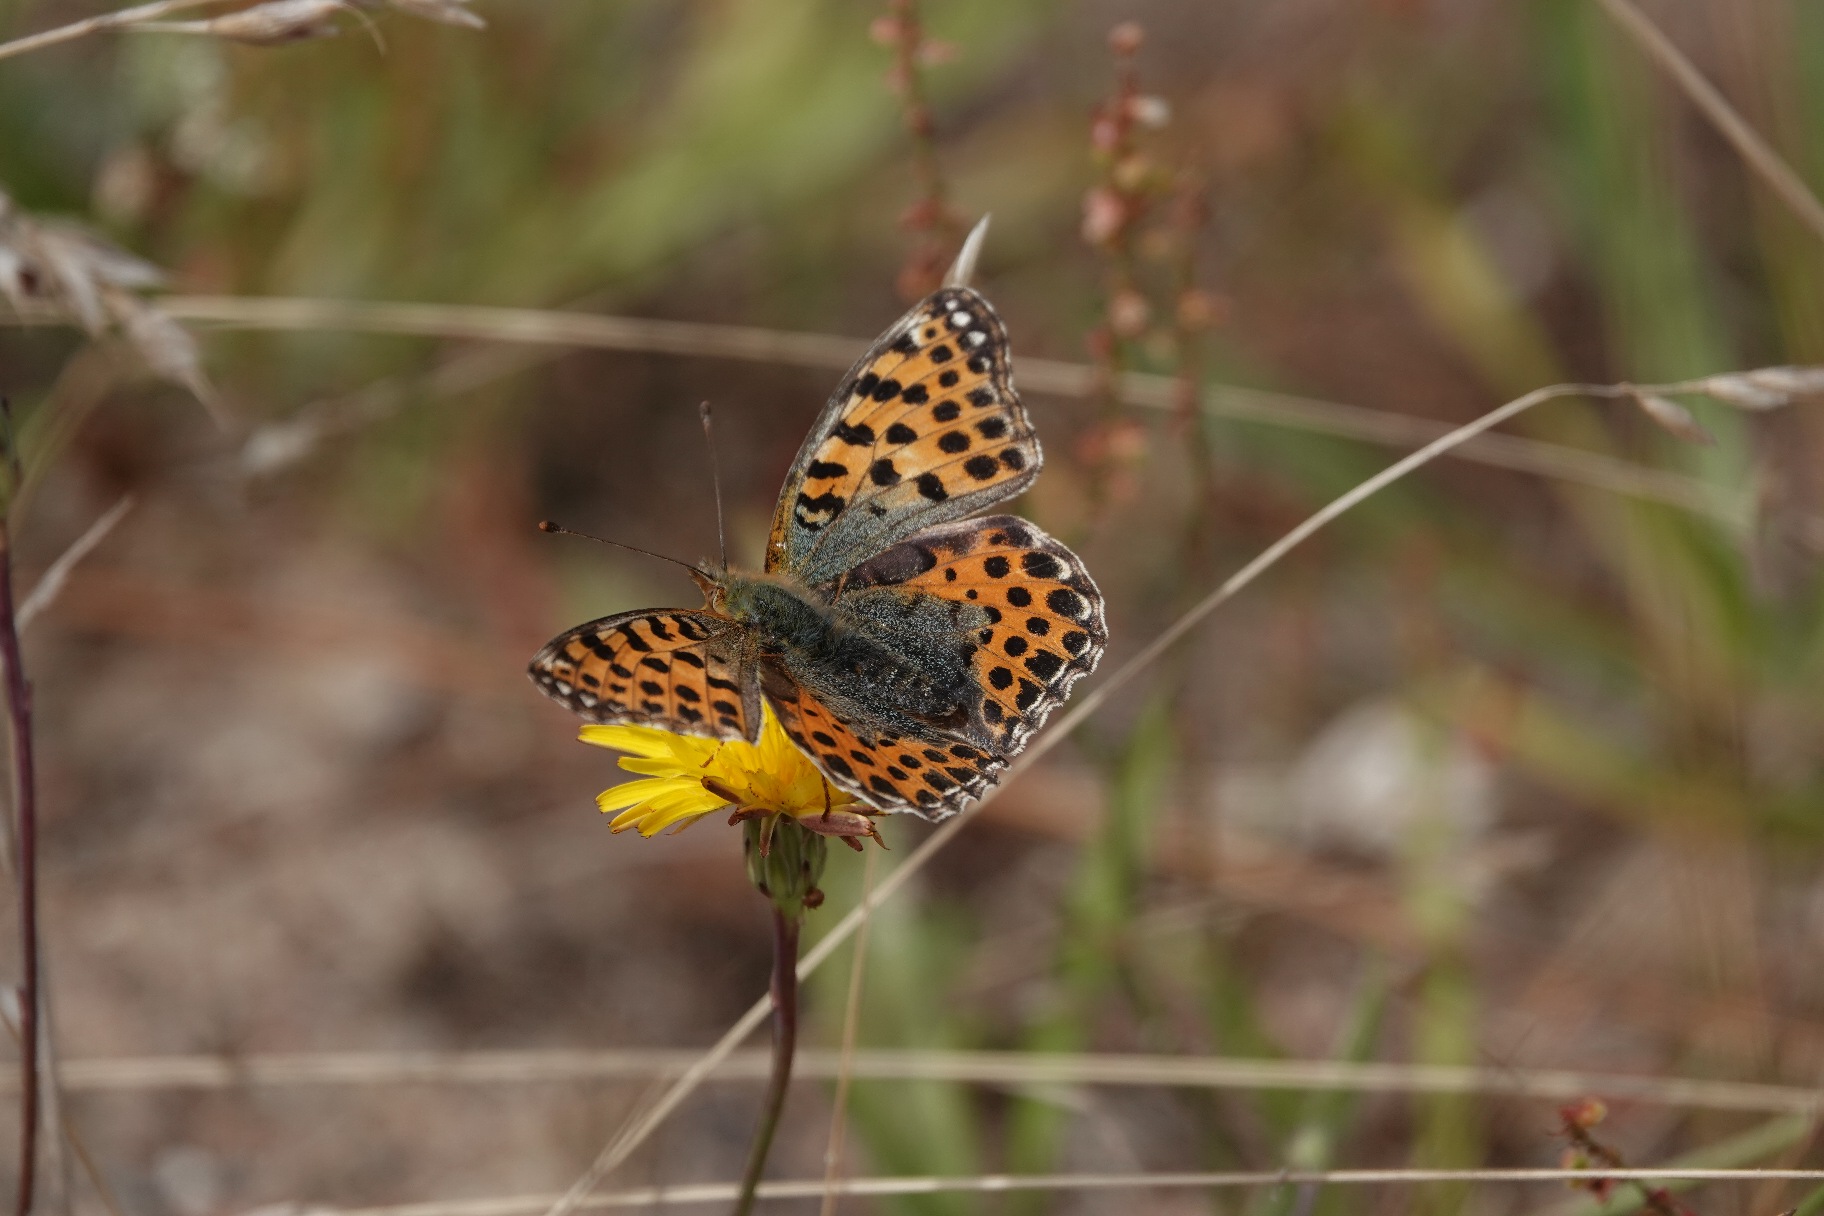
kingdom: Animalia
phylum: Arthropoda
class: Insecta
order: Lepidoptera
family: Nymphalidae
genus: Issoria
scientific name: Issoria lathonia
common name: Storplettet perlemorsommerfugl
